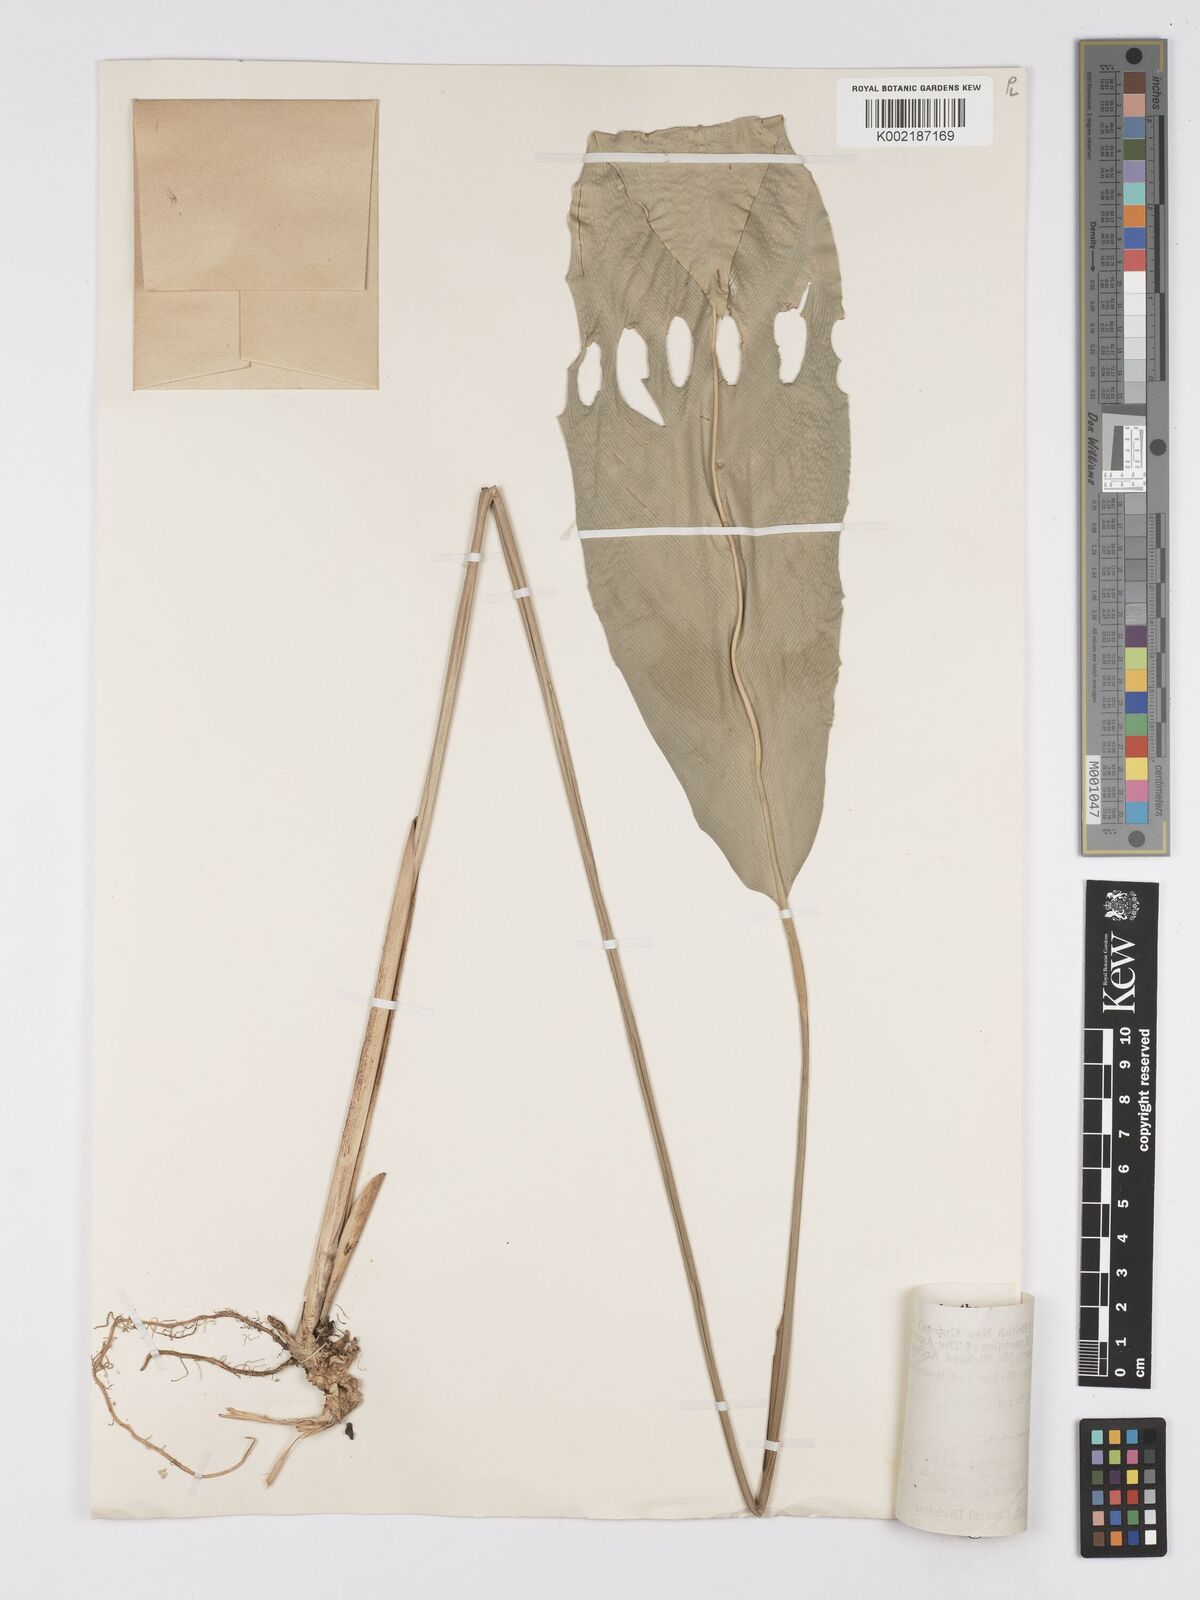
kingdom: Plantae
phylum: Tracheophyta
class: Liliopsida
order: Zingiberales
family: Marantaceae
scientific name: Marantaceae
